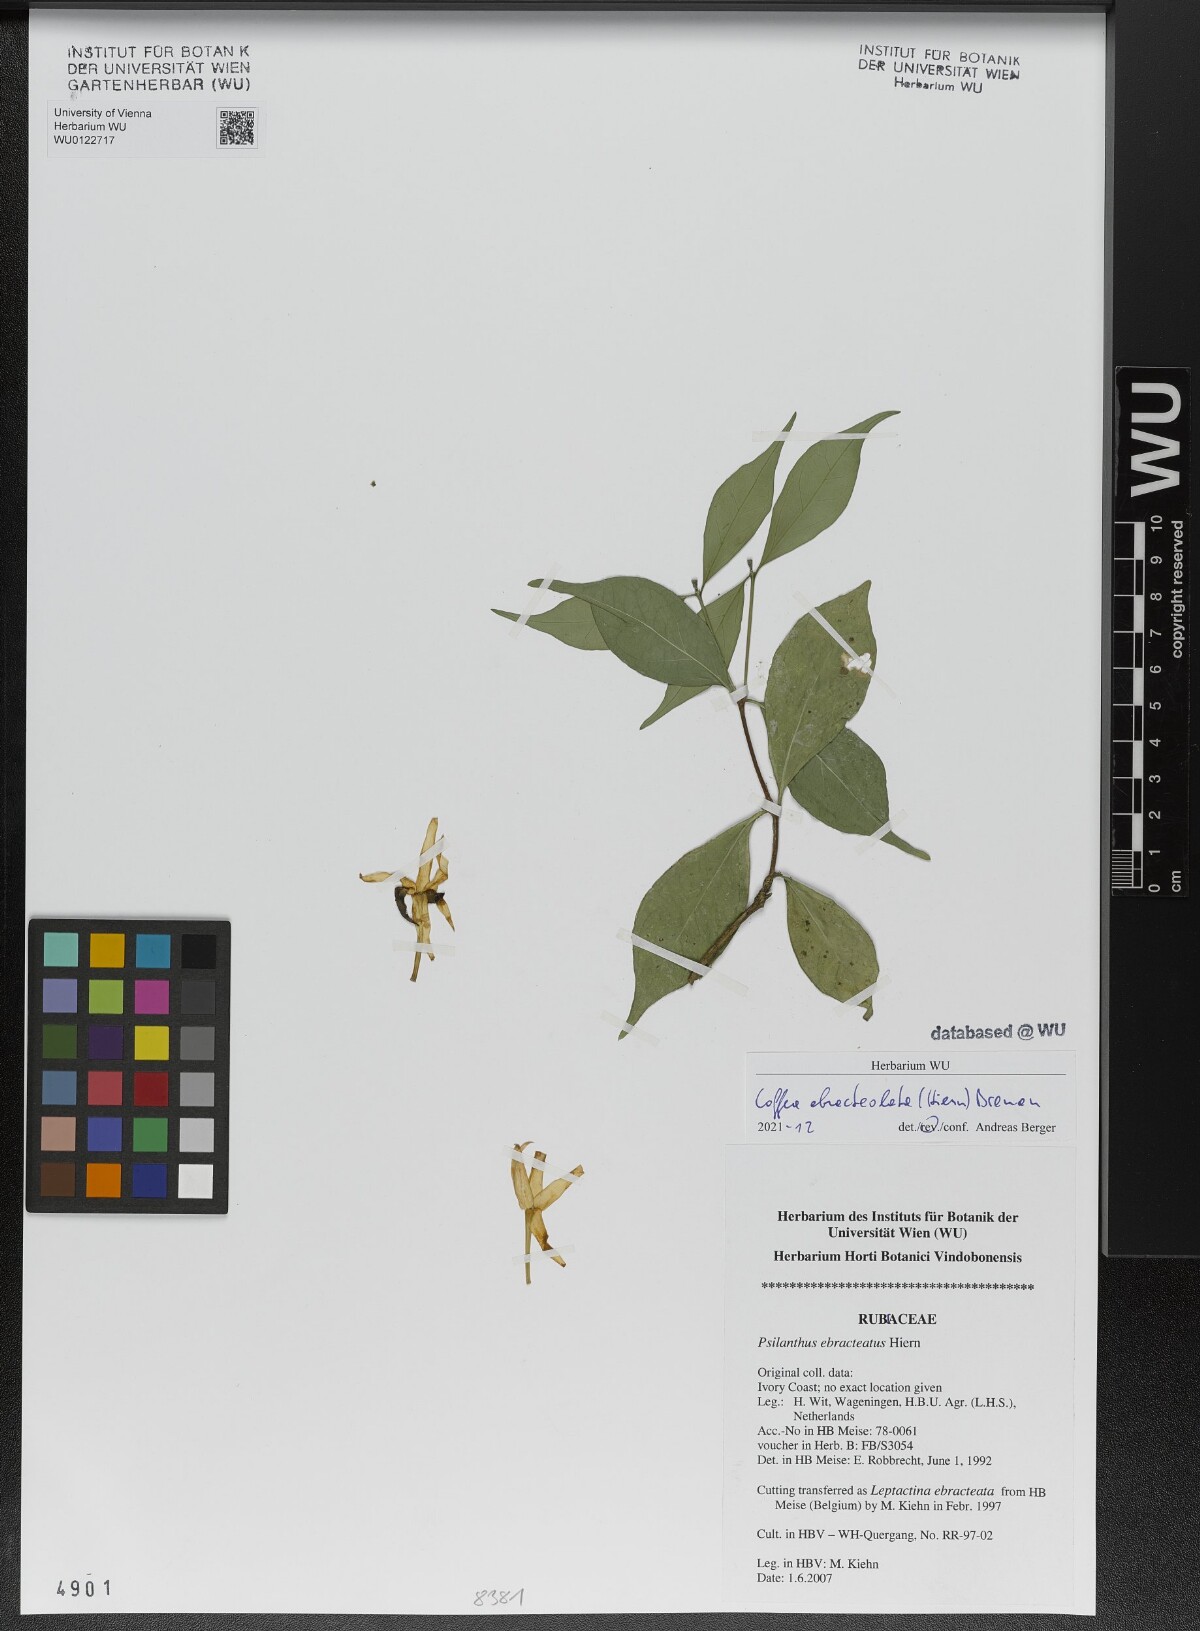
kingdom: Plantae
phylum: Tracheophyta
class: Magnoliopsida
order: Gentianales
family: Rubiaceae
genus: Coffea
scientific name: Coffea ebracteolata
